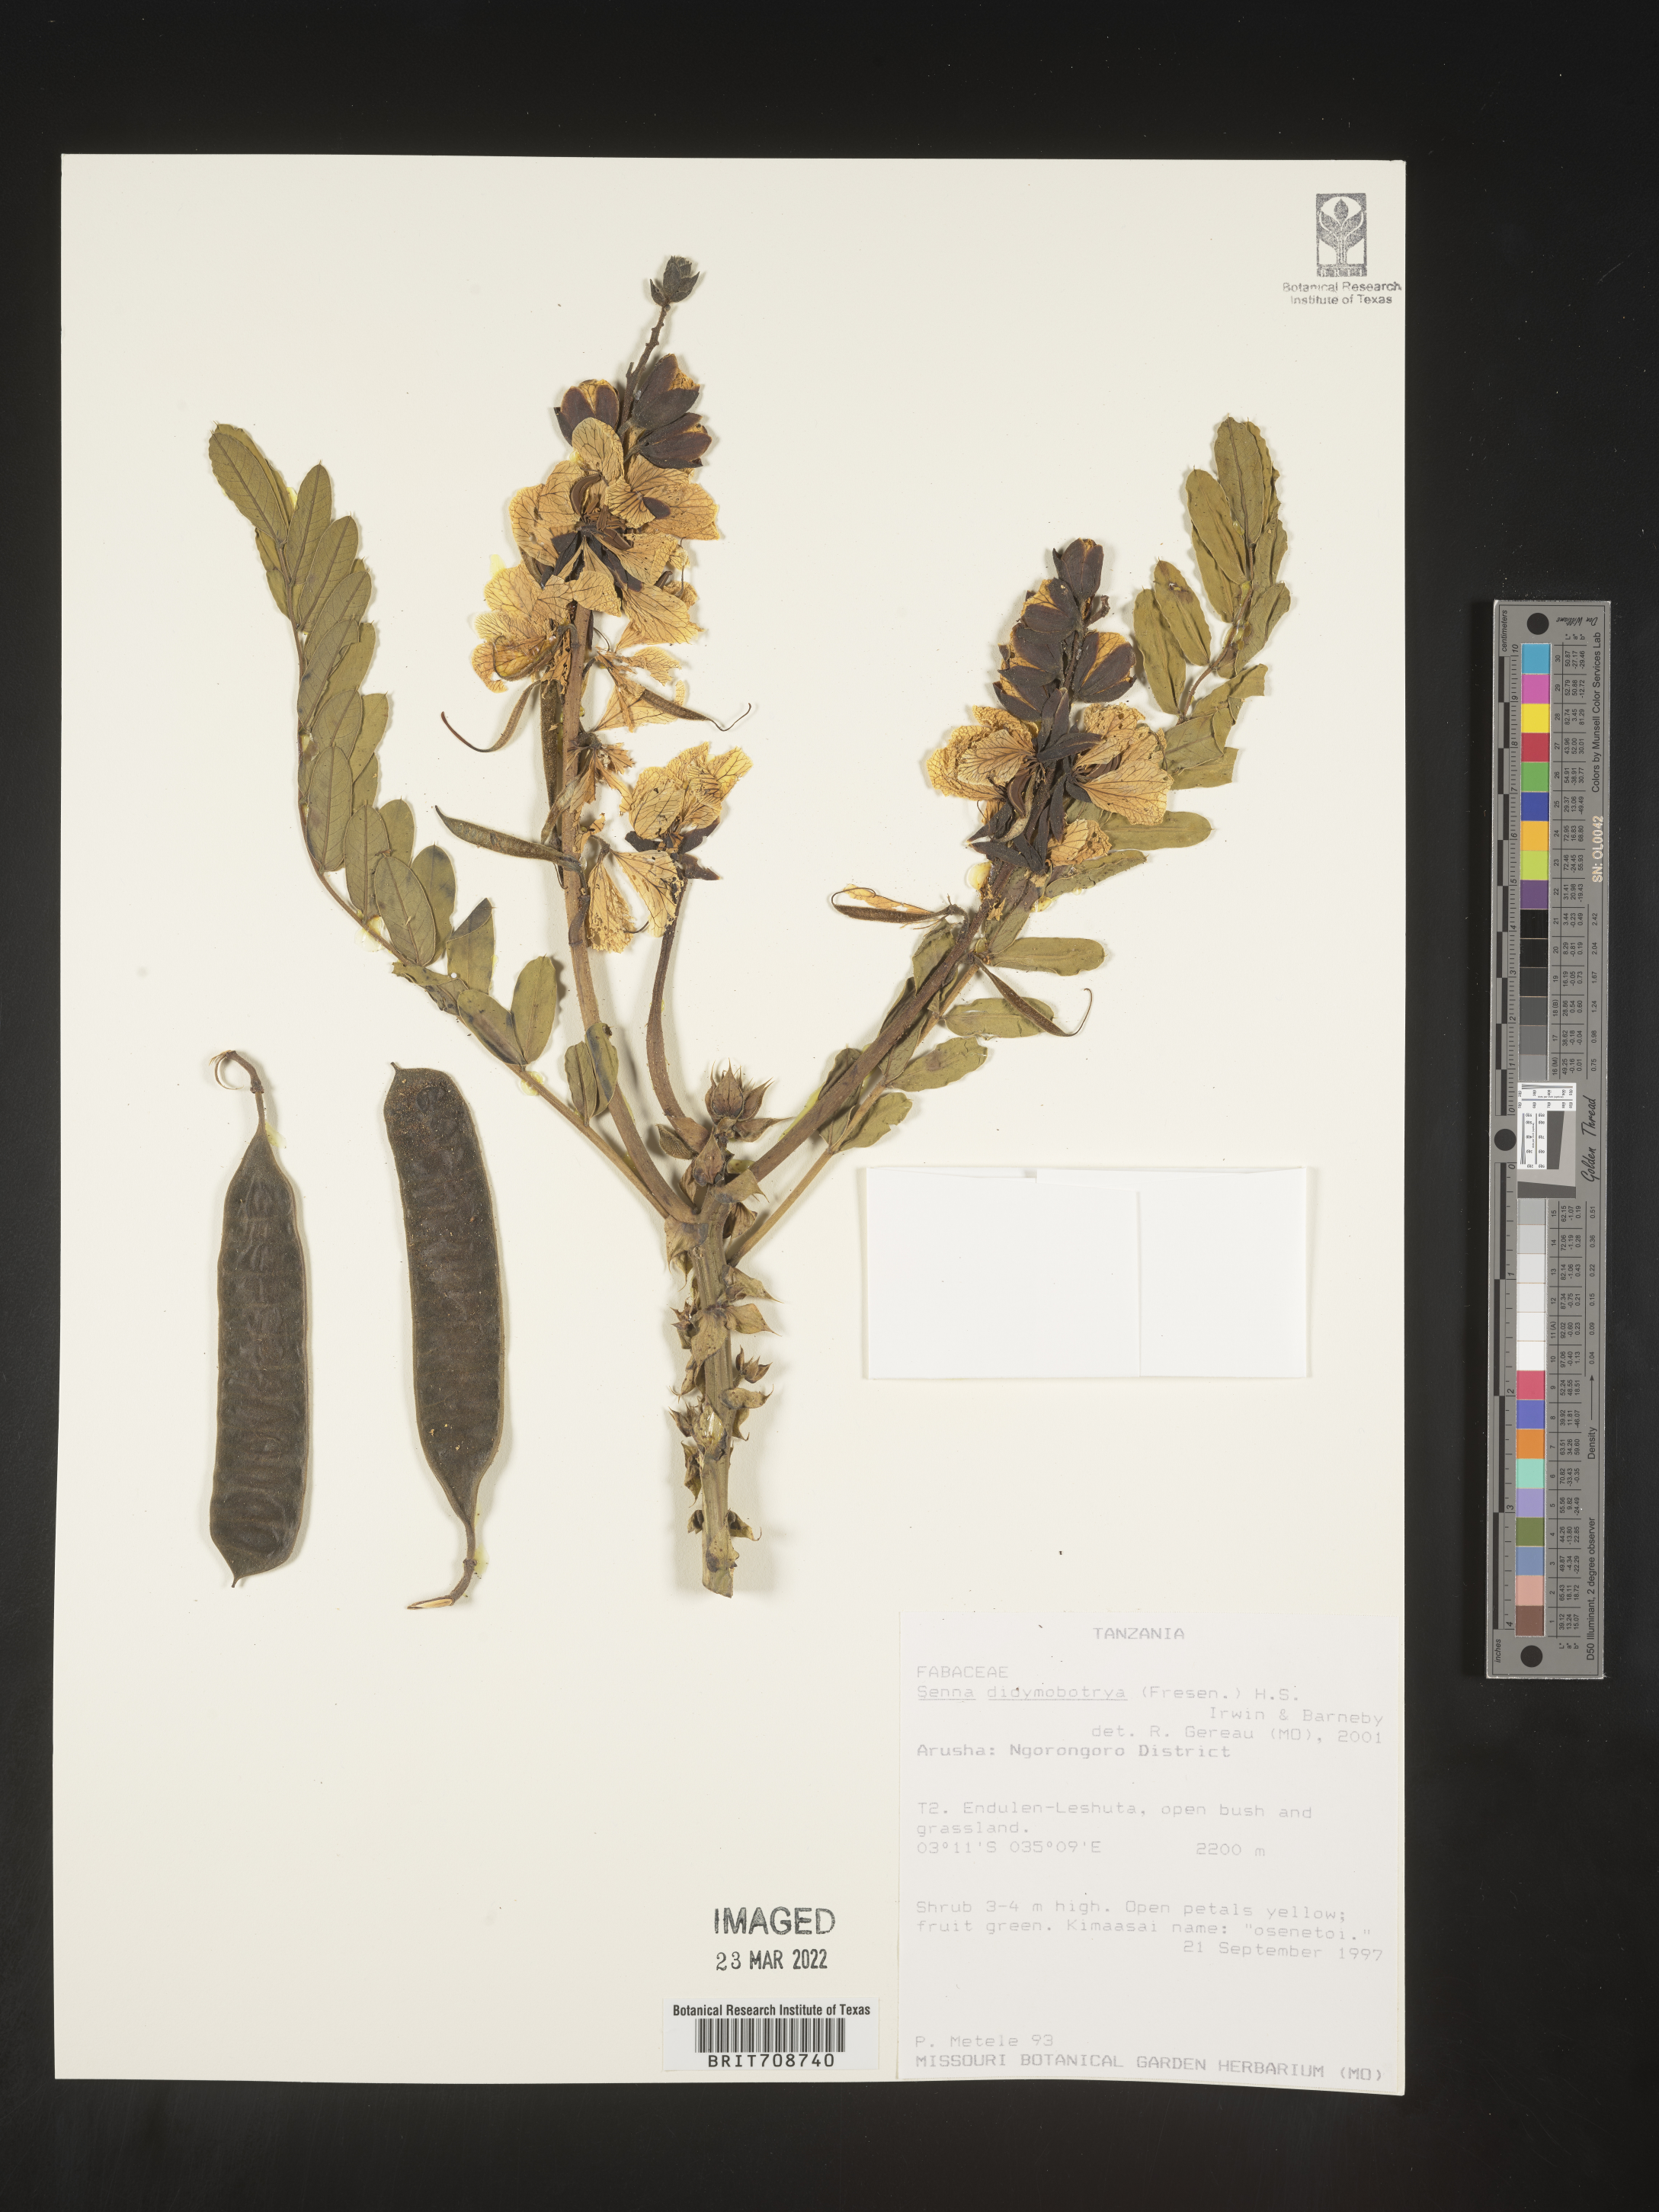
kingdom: Plantae
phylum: Tracheophyta
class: Magnoliopsida
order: Fabales
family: Fabaceae
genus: Senna
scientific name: Senna
